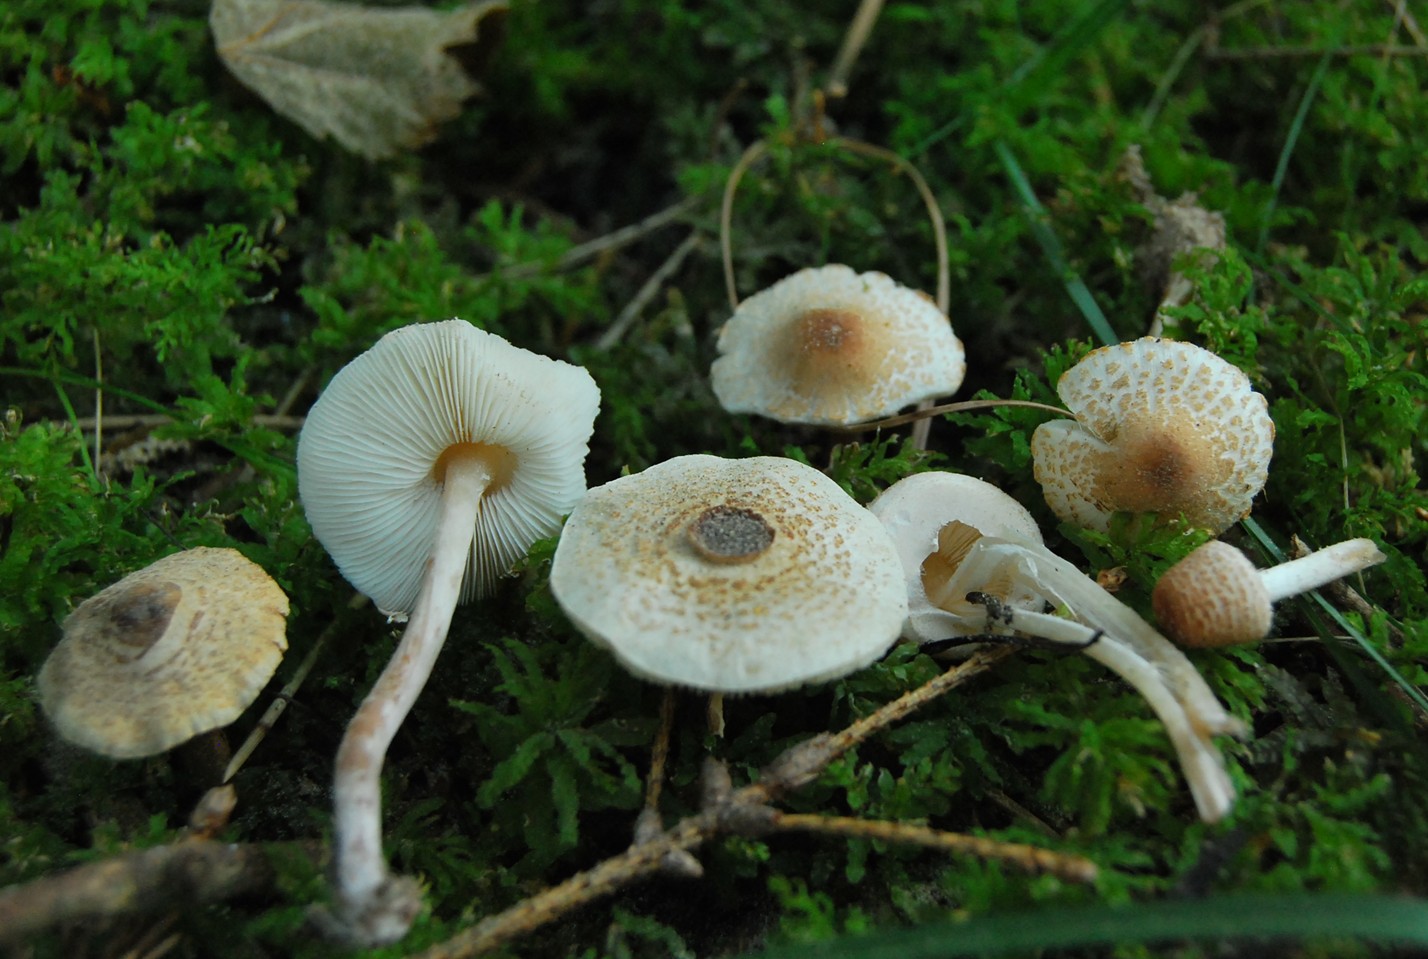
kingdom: Fungi
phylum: Basidiomycota
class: Agaricomycetes
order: Agaricales
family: Agaricaceae
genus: Lepiota
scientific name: Lepiota cristata
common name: stinkende parasolhat
